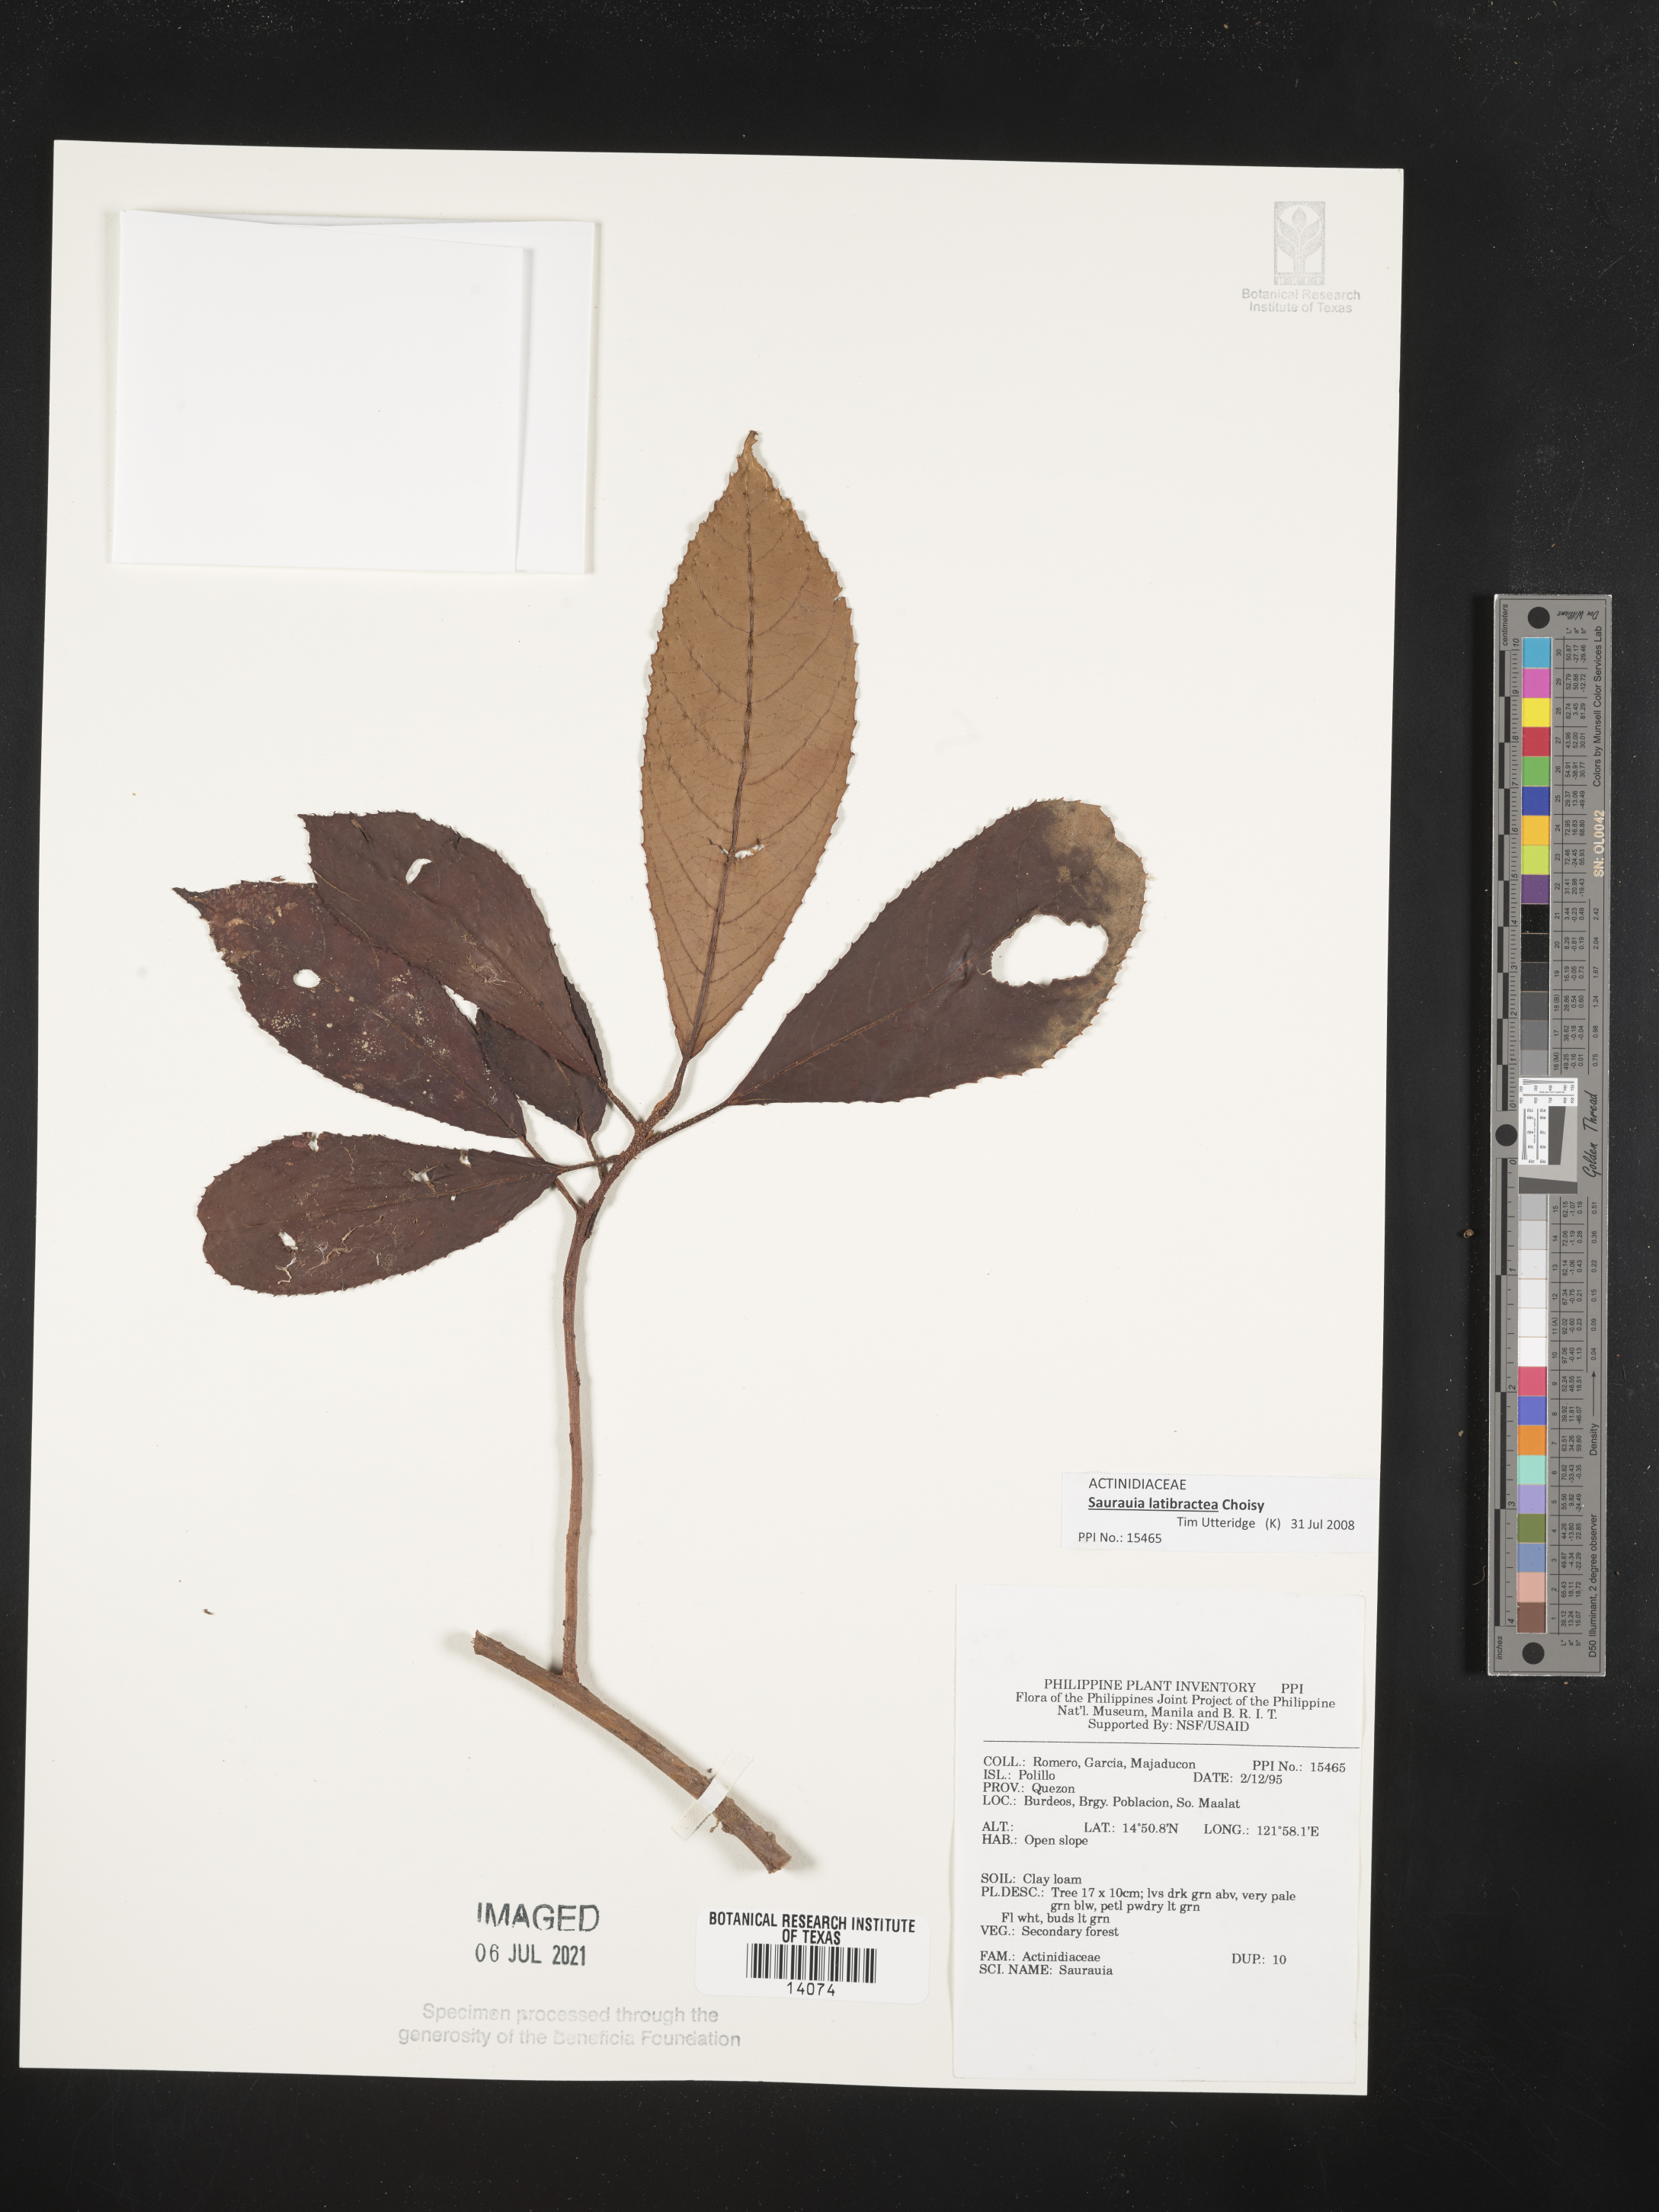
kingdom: Plantae
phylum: Tracheophyta
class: Magnoliopsida
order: Ericales
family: Actinidiaceae
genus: Saurauia
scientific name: Saurauia
